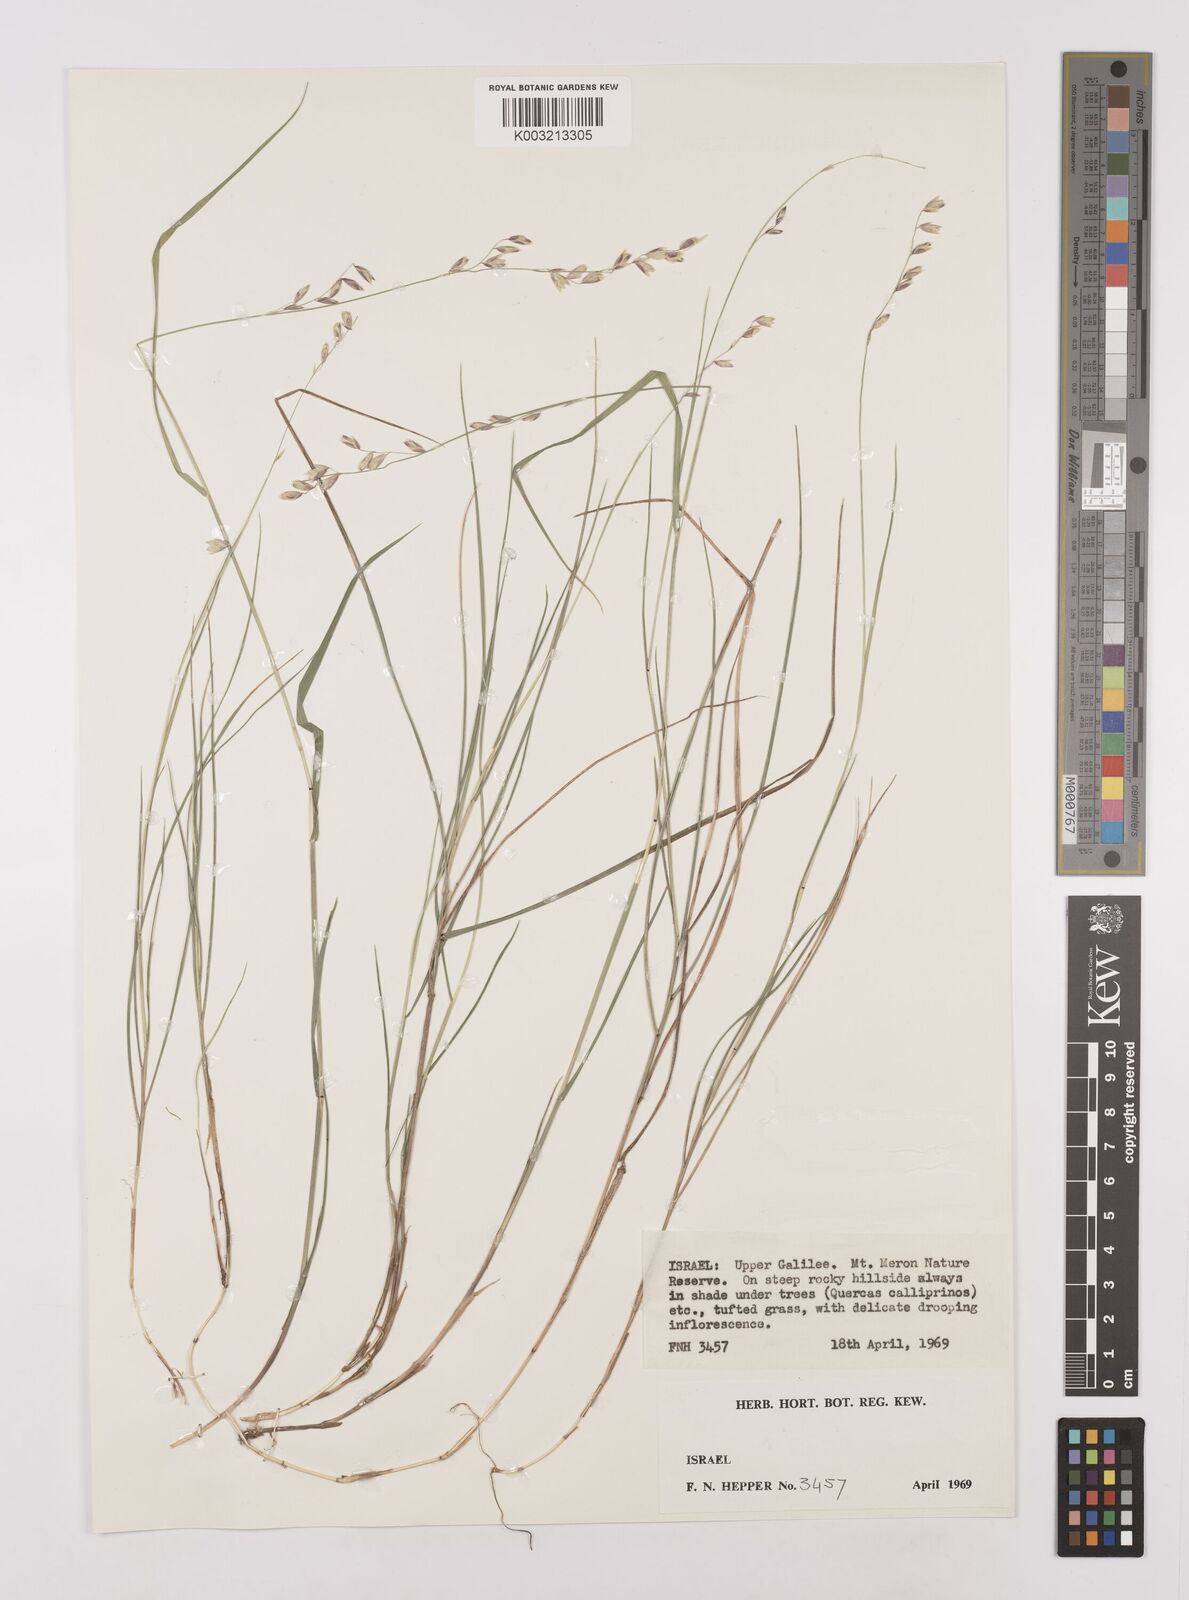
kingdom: Plantae
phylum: Tracheophyta
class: Liliopsida
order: Poales
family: Poaceae
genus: Melica
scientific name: Melica minuta
